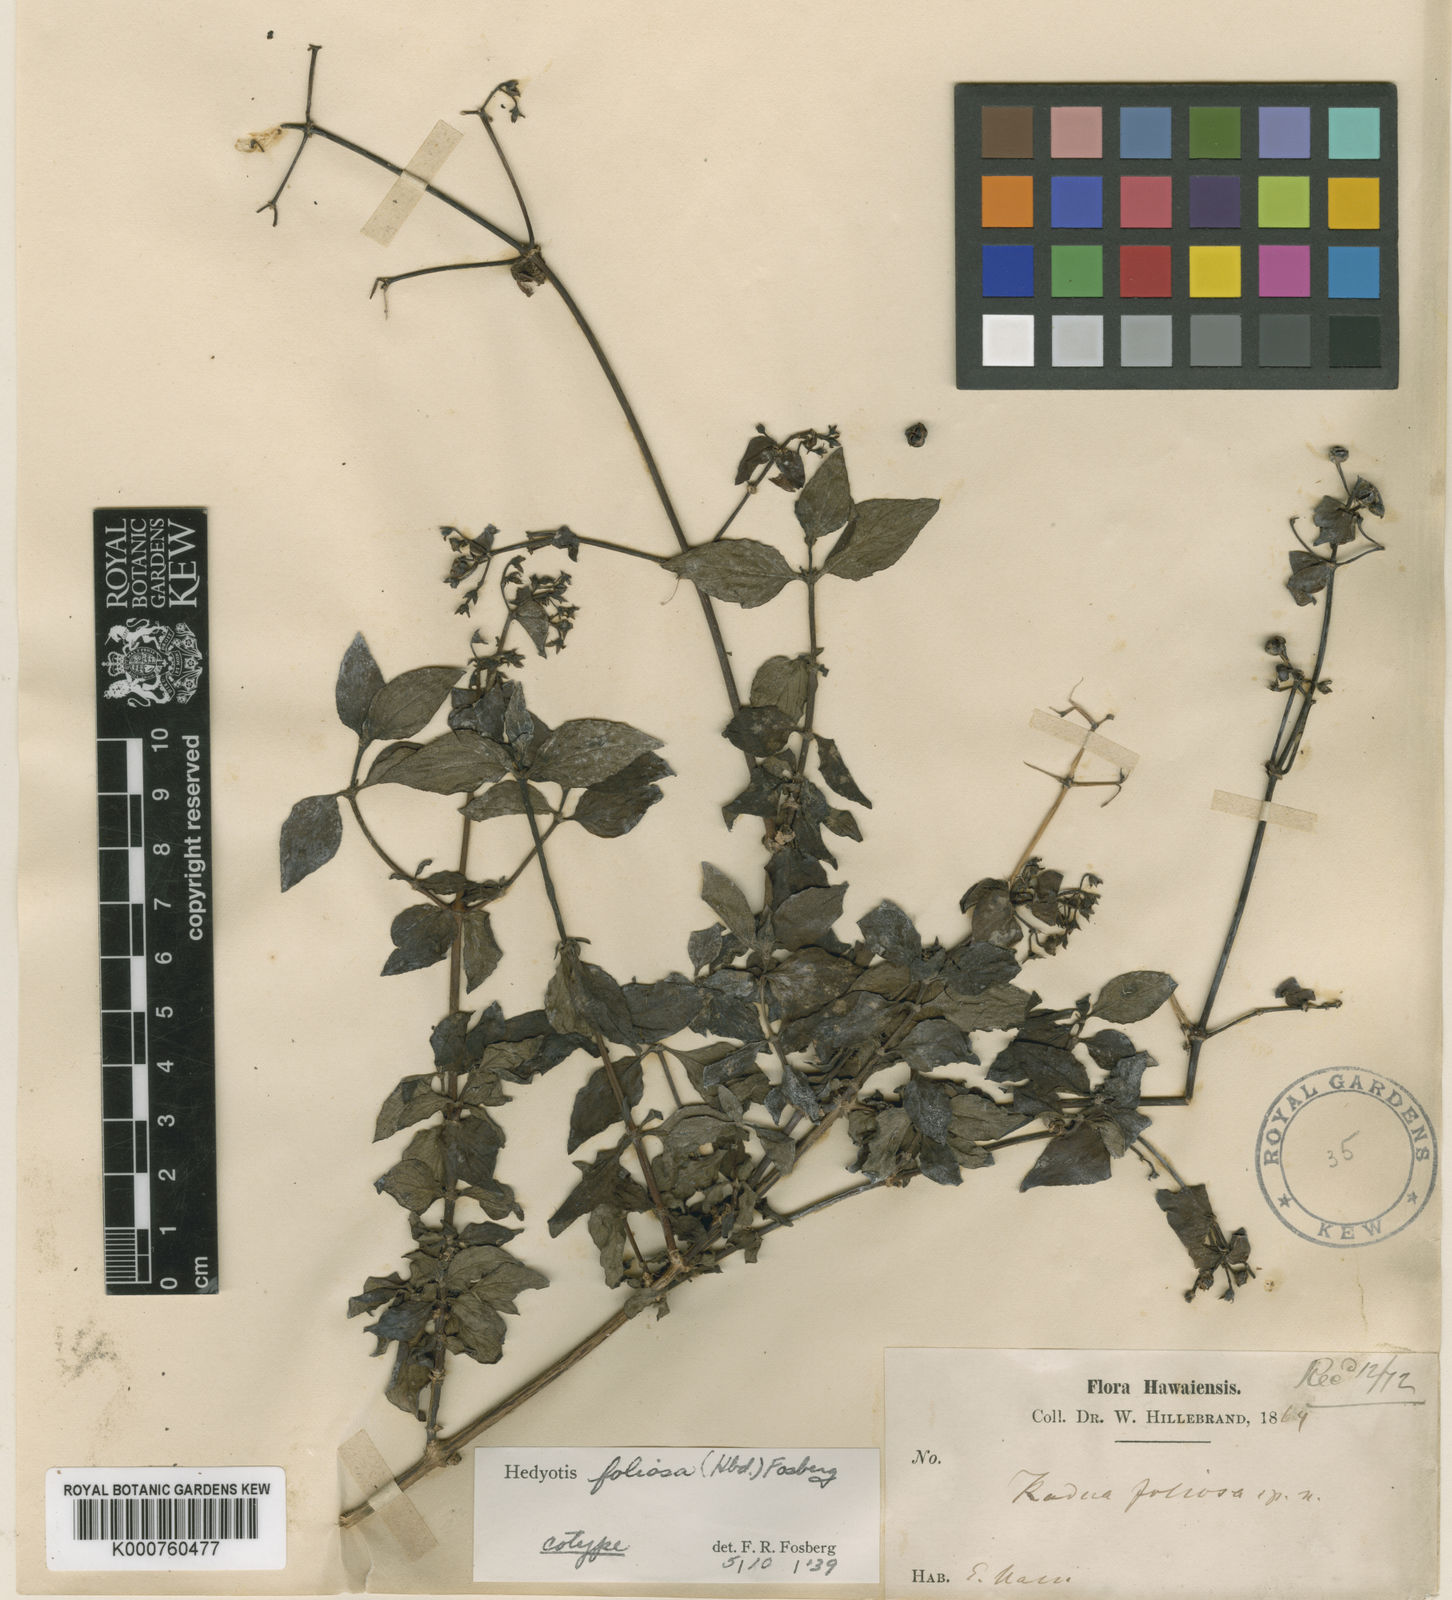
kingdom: Plantae
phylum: Tracheophyta
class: Magnoliopsida
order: Gentianales
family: Rubiaceae
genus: Kadua
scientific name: Kadua foliosa
